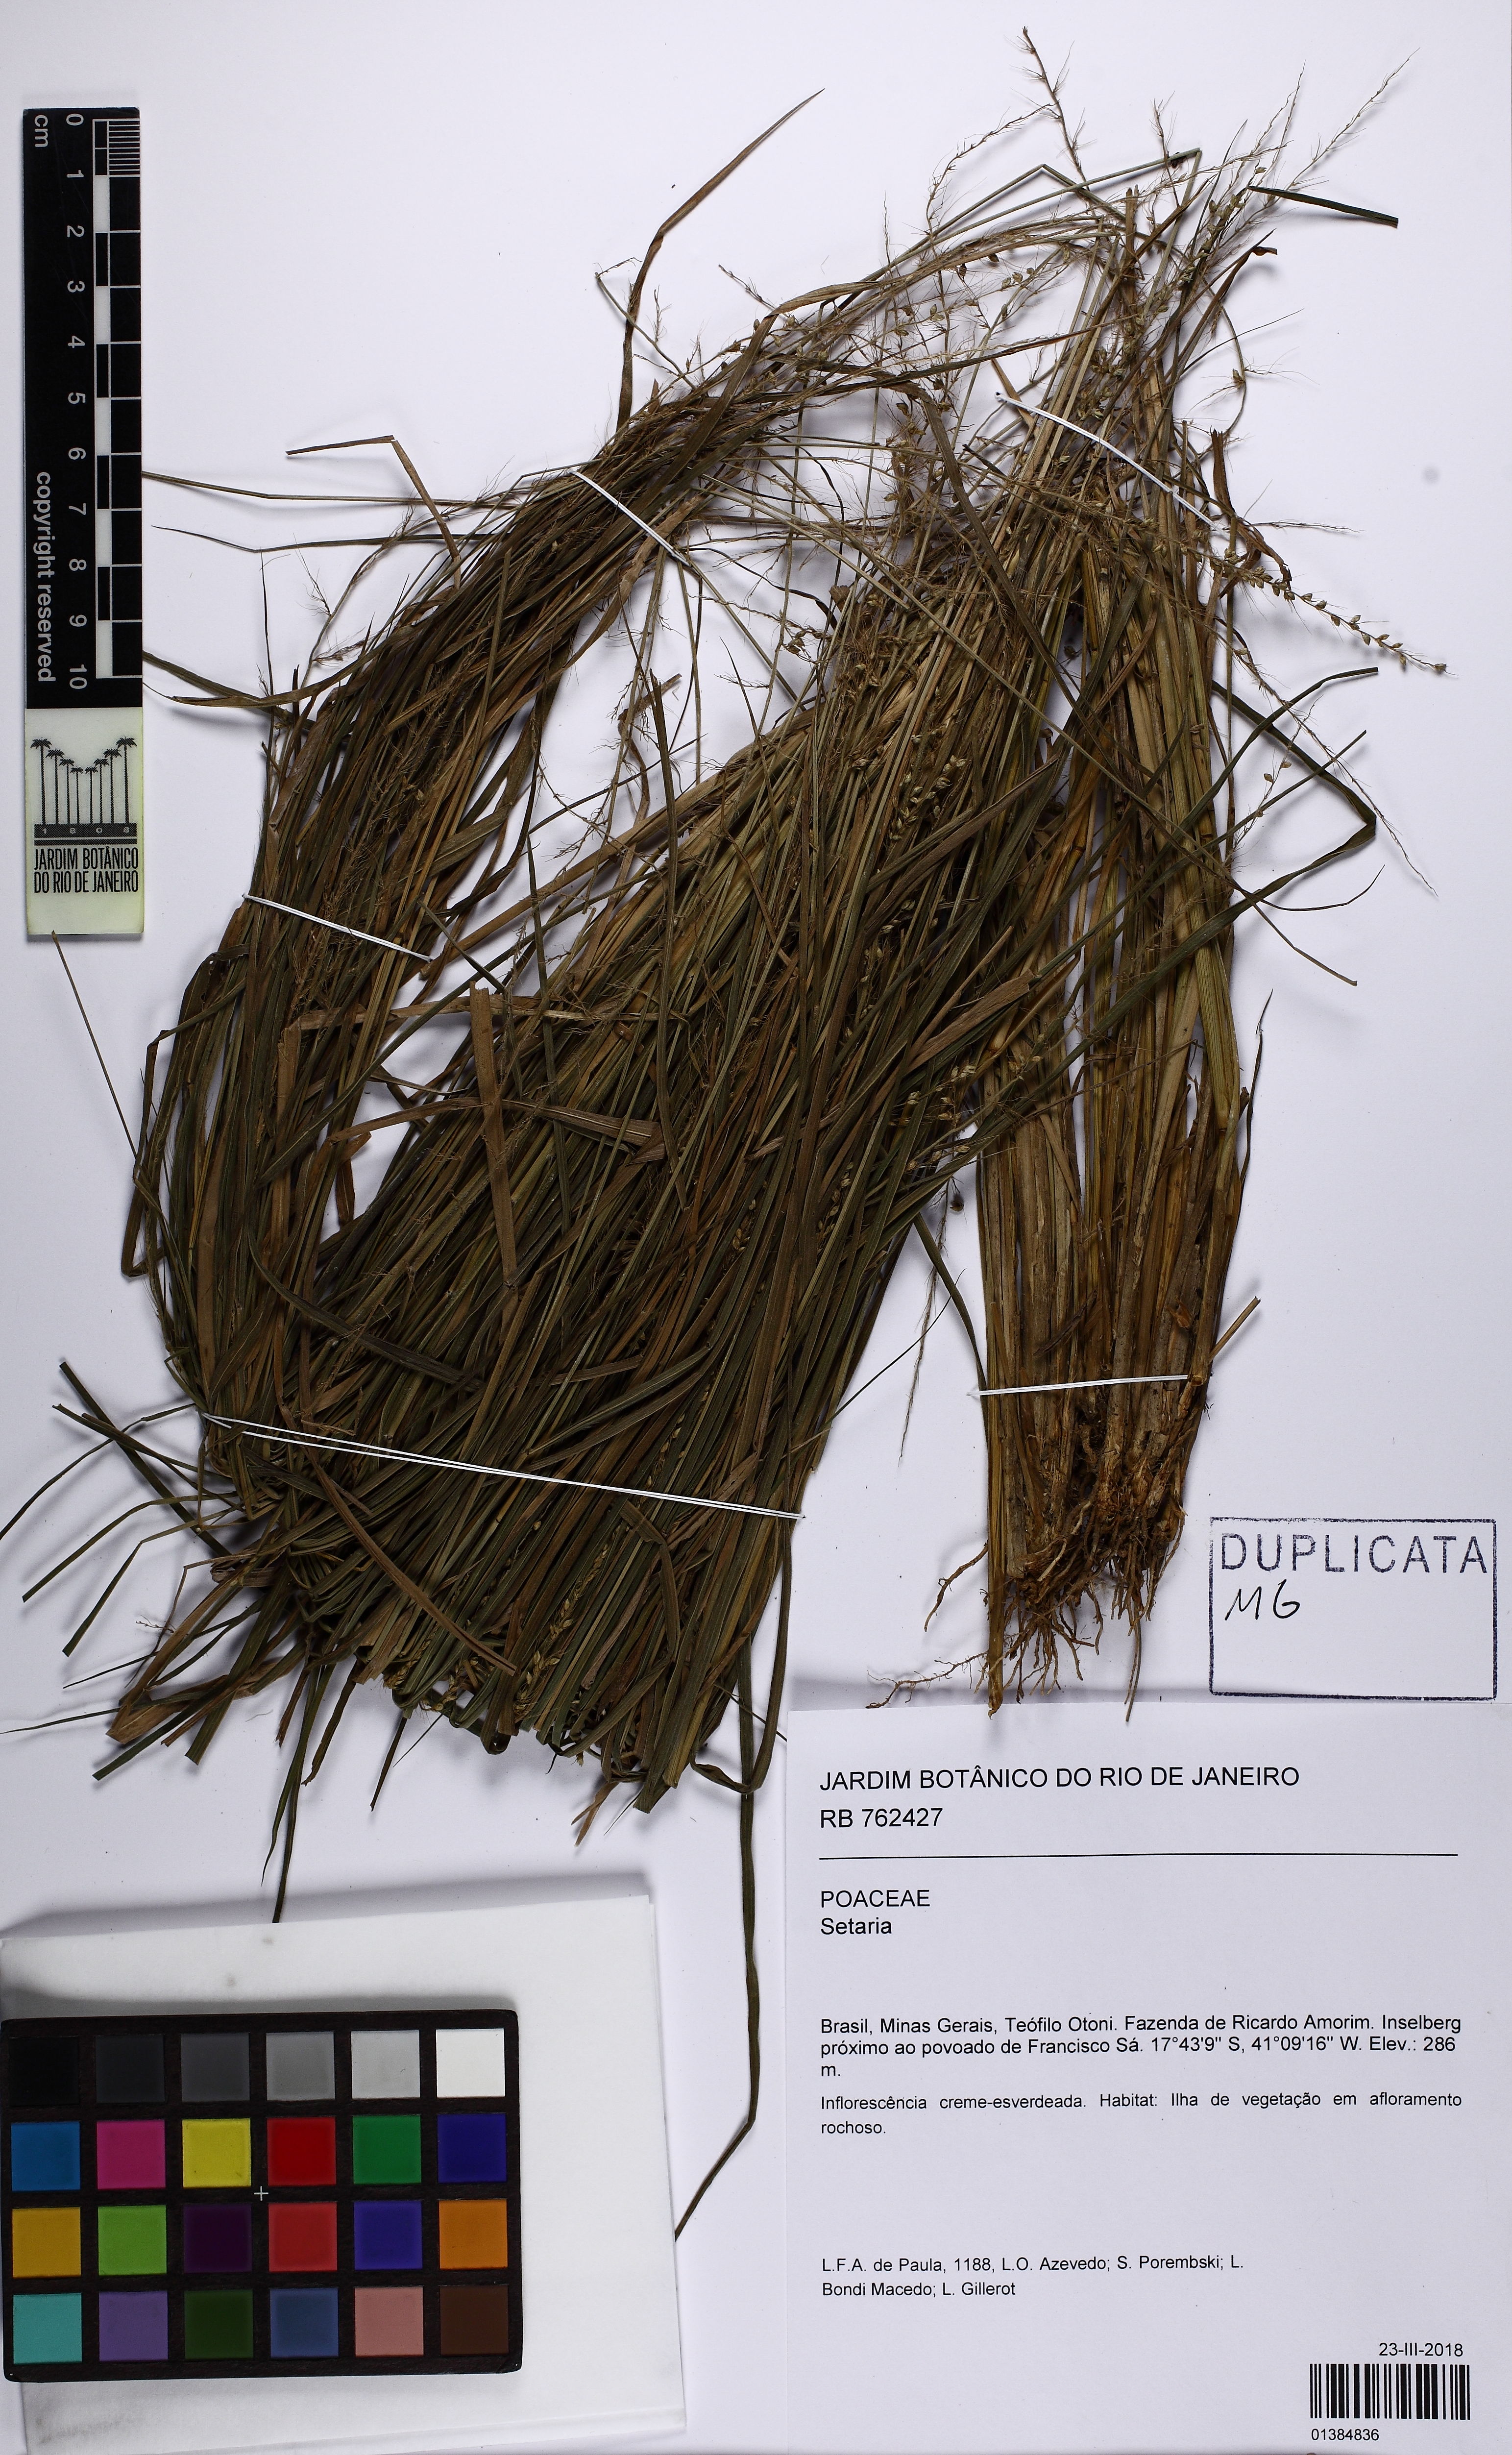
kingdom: Plantae
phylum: Tracheophyta
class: Liliopsida
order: Poales
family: Poaceae
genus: Setaria
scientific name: Setaria setosa
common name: West indies bristle grass
